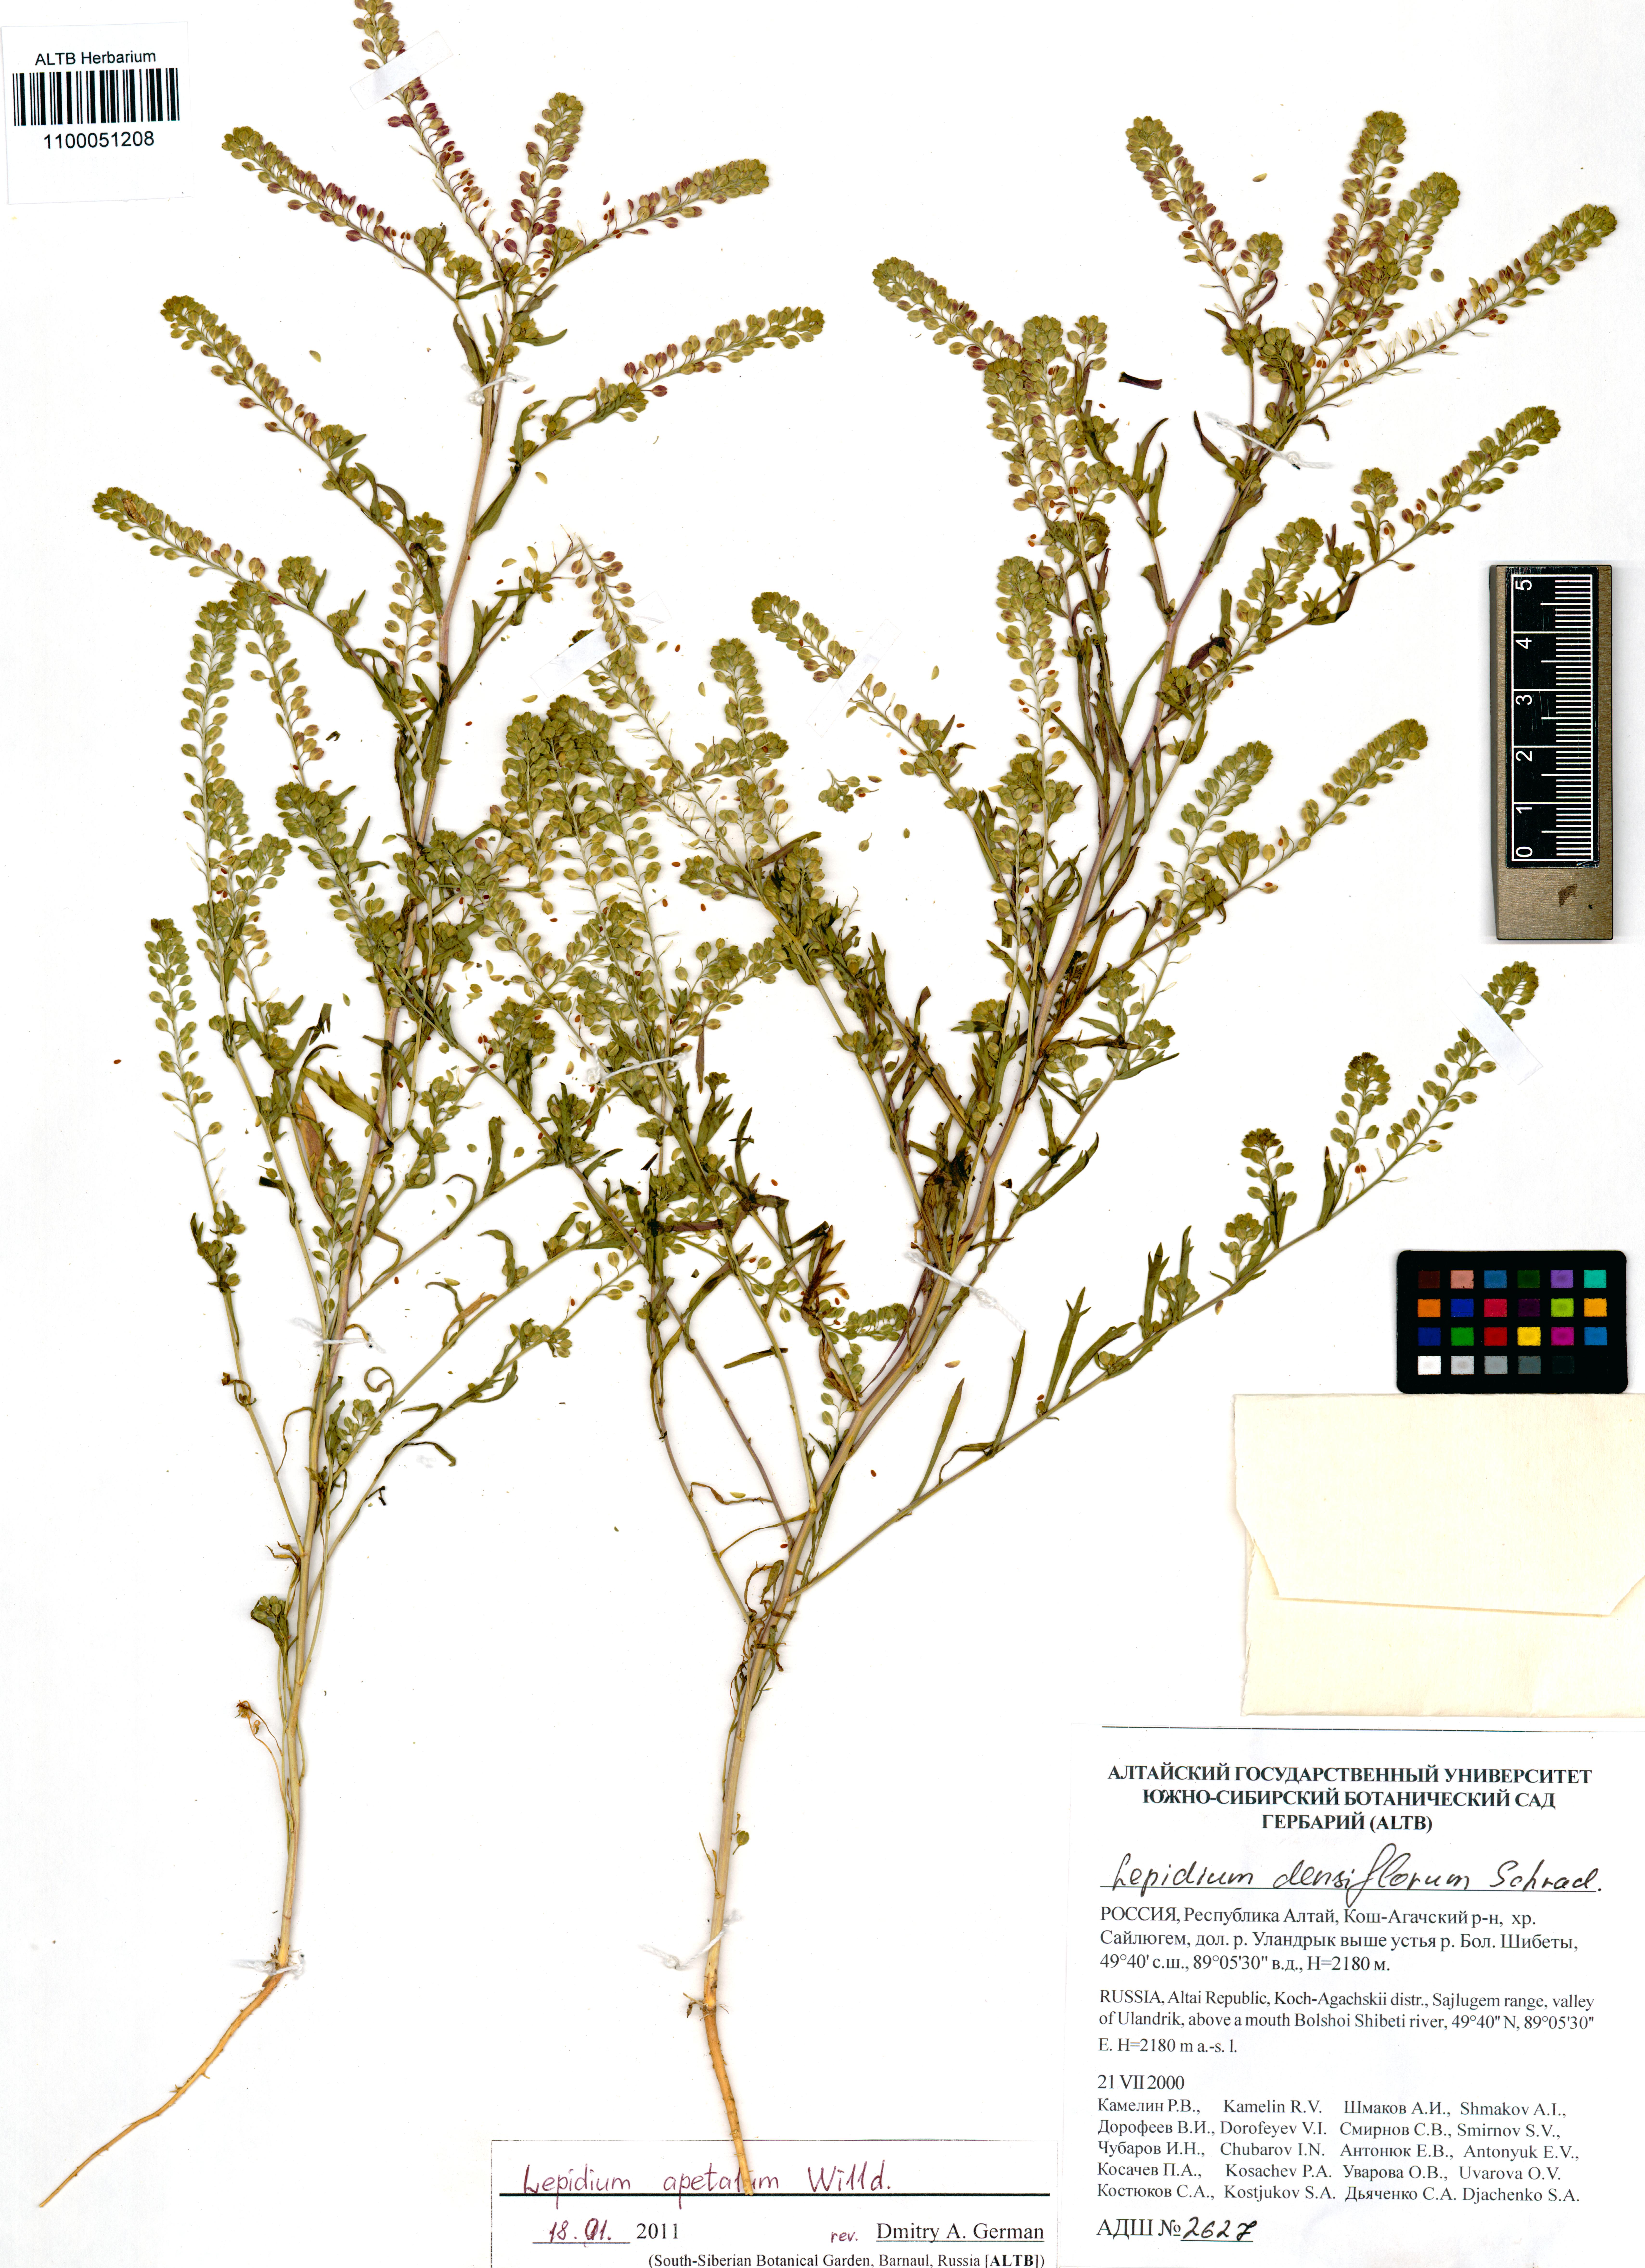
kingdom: Plantae
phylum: Tracheophyta
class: Magnoliopsida
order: Brassicales
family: Brassicaceae
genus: Lepidium
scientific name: Lepidium apetalum
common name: Pepperweed
